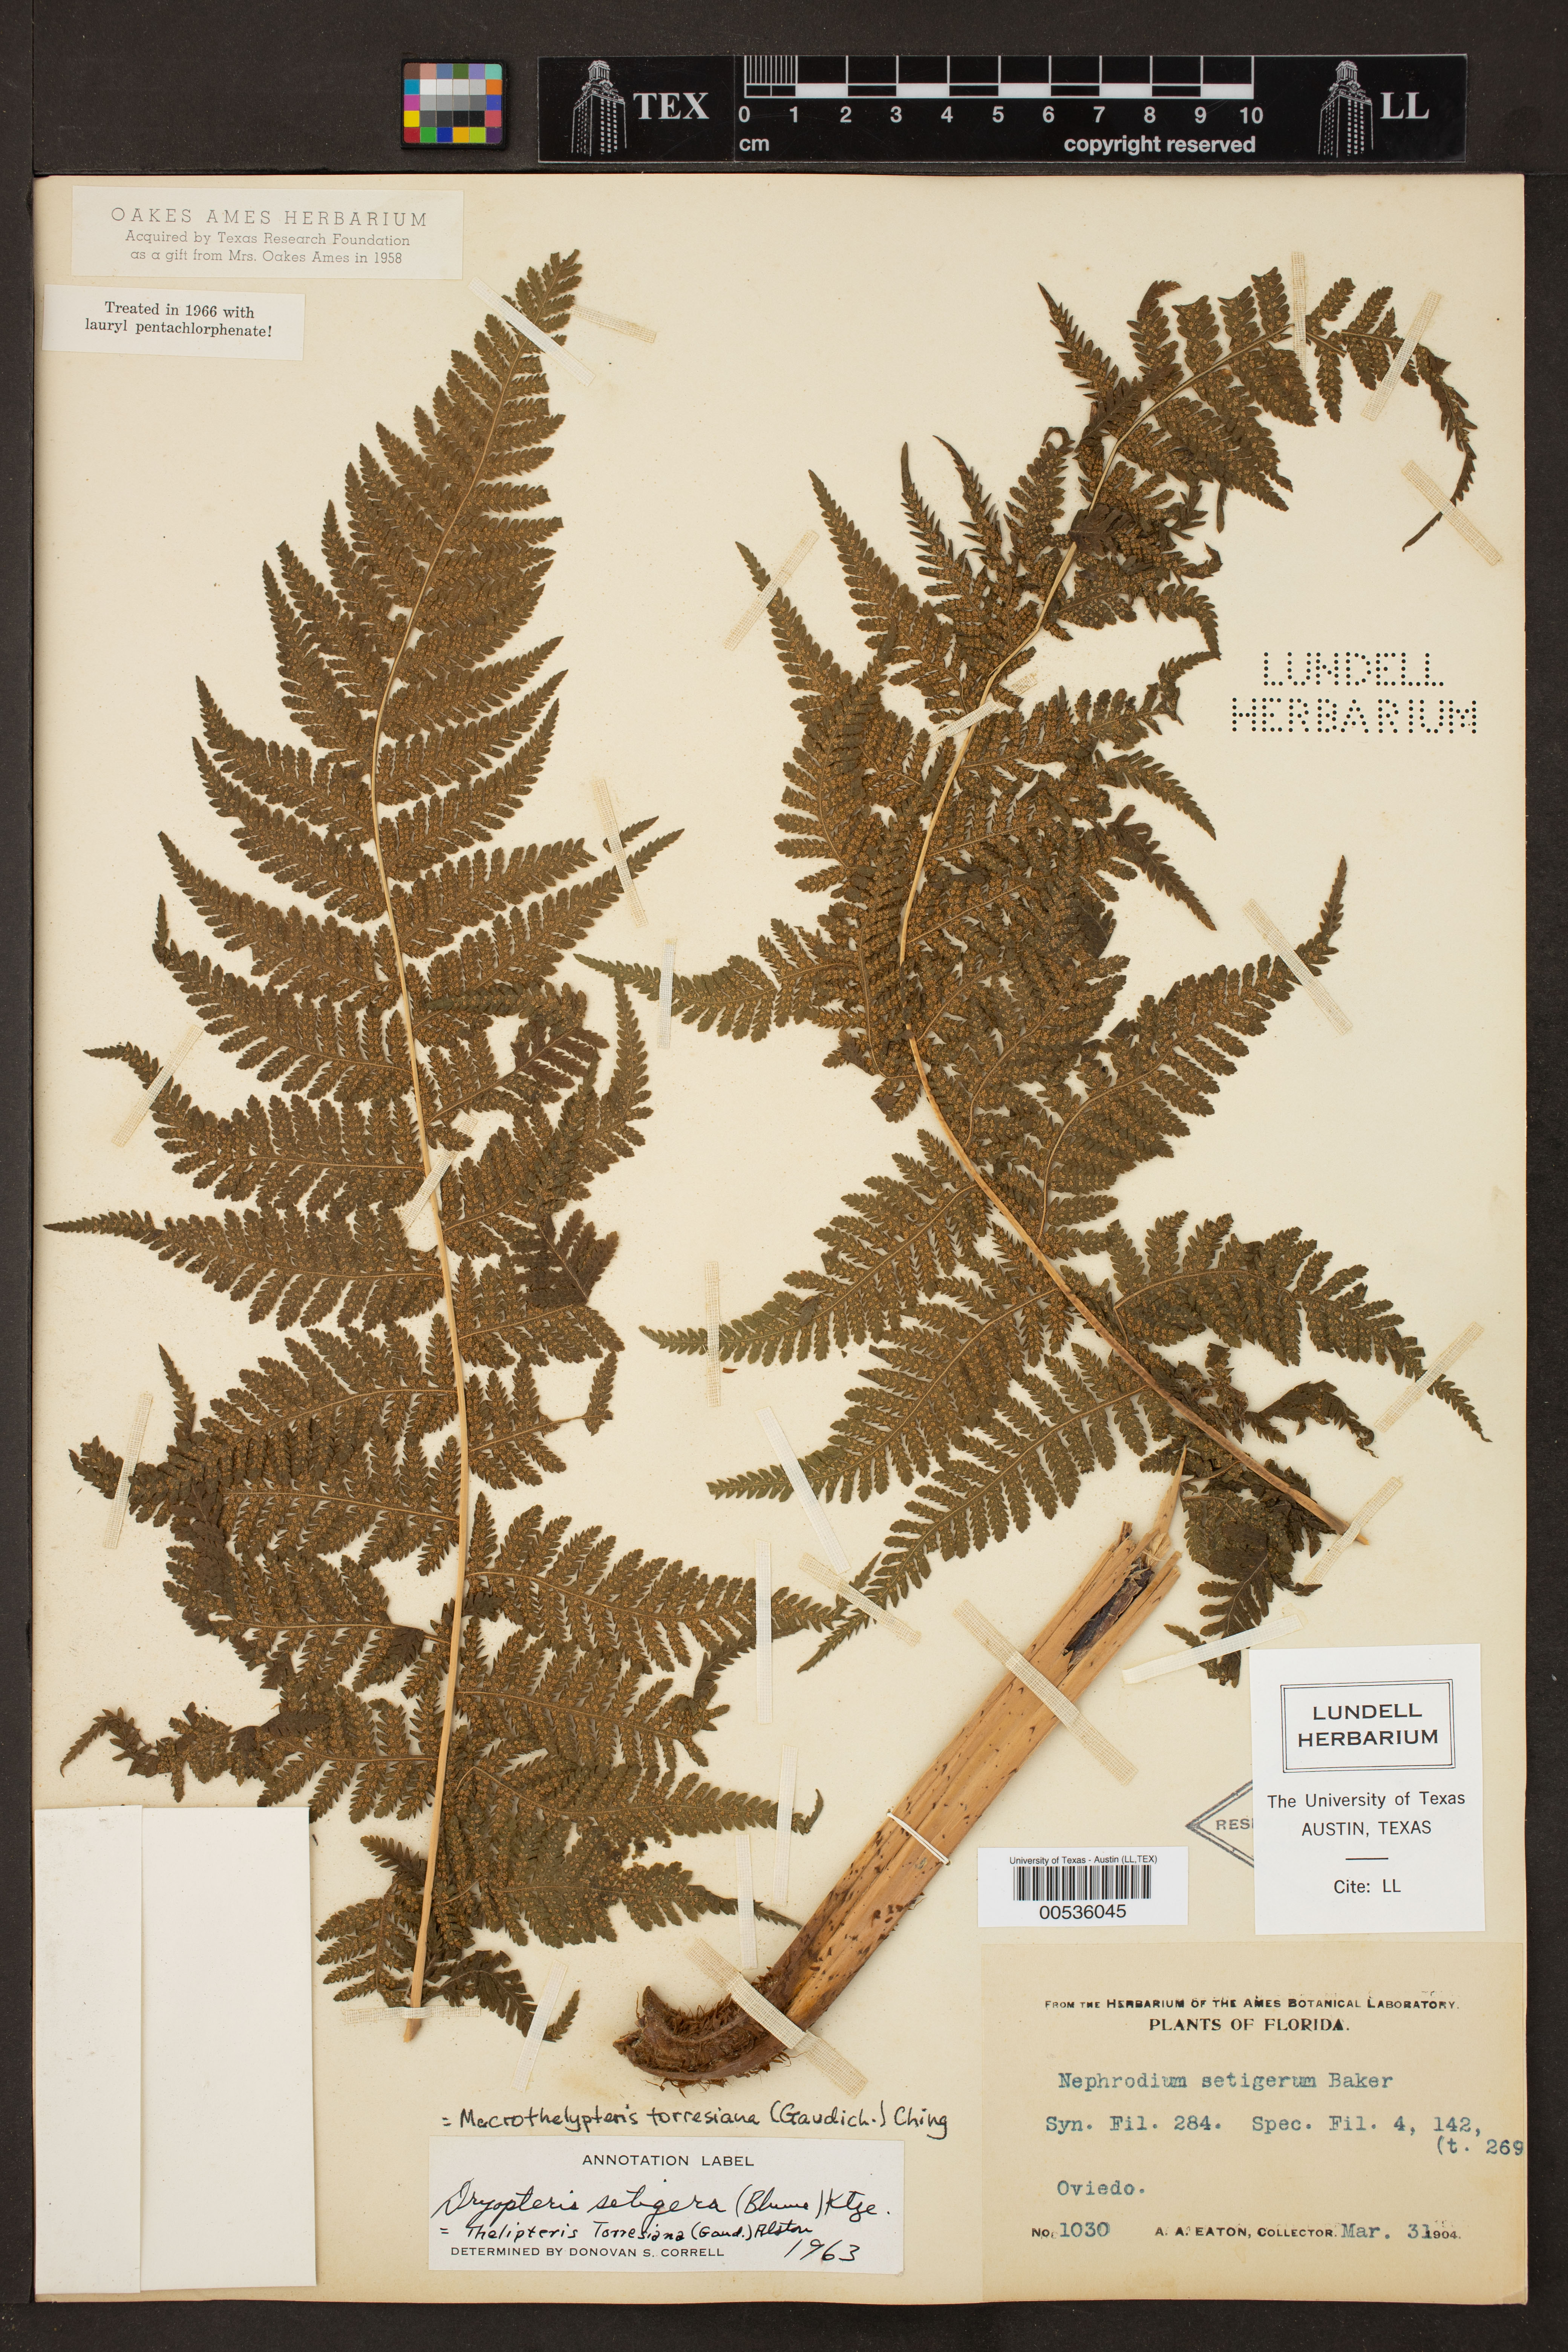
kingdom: Plantae
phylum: Tracheophyta
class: Polypodiopsida
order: Polypodiales
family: Thelypteridaceae
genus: Macrothelypteris
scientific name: Macrothelypteris torresiana
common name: Swordfern
